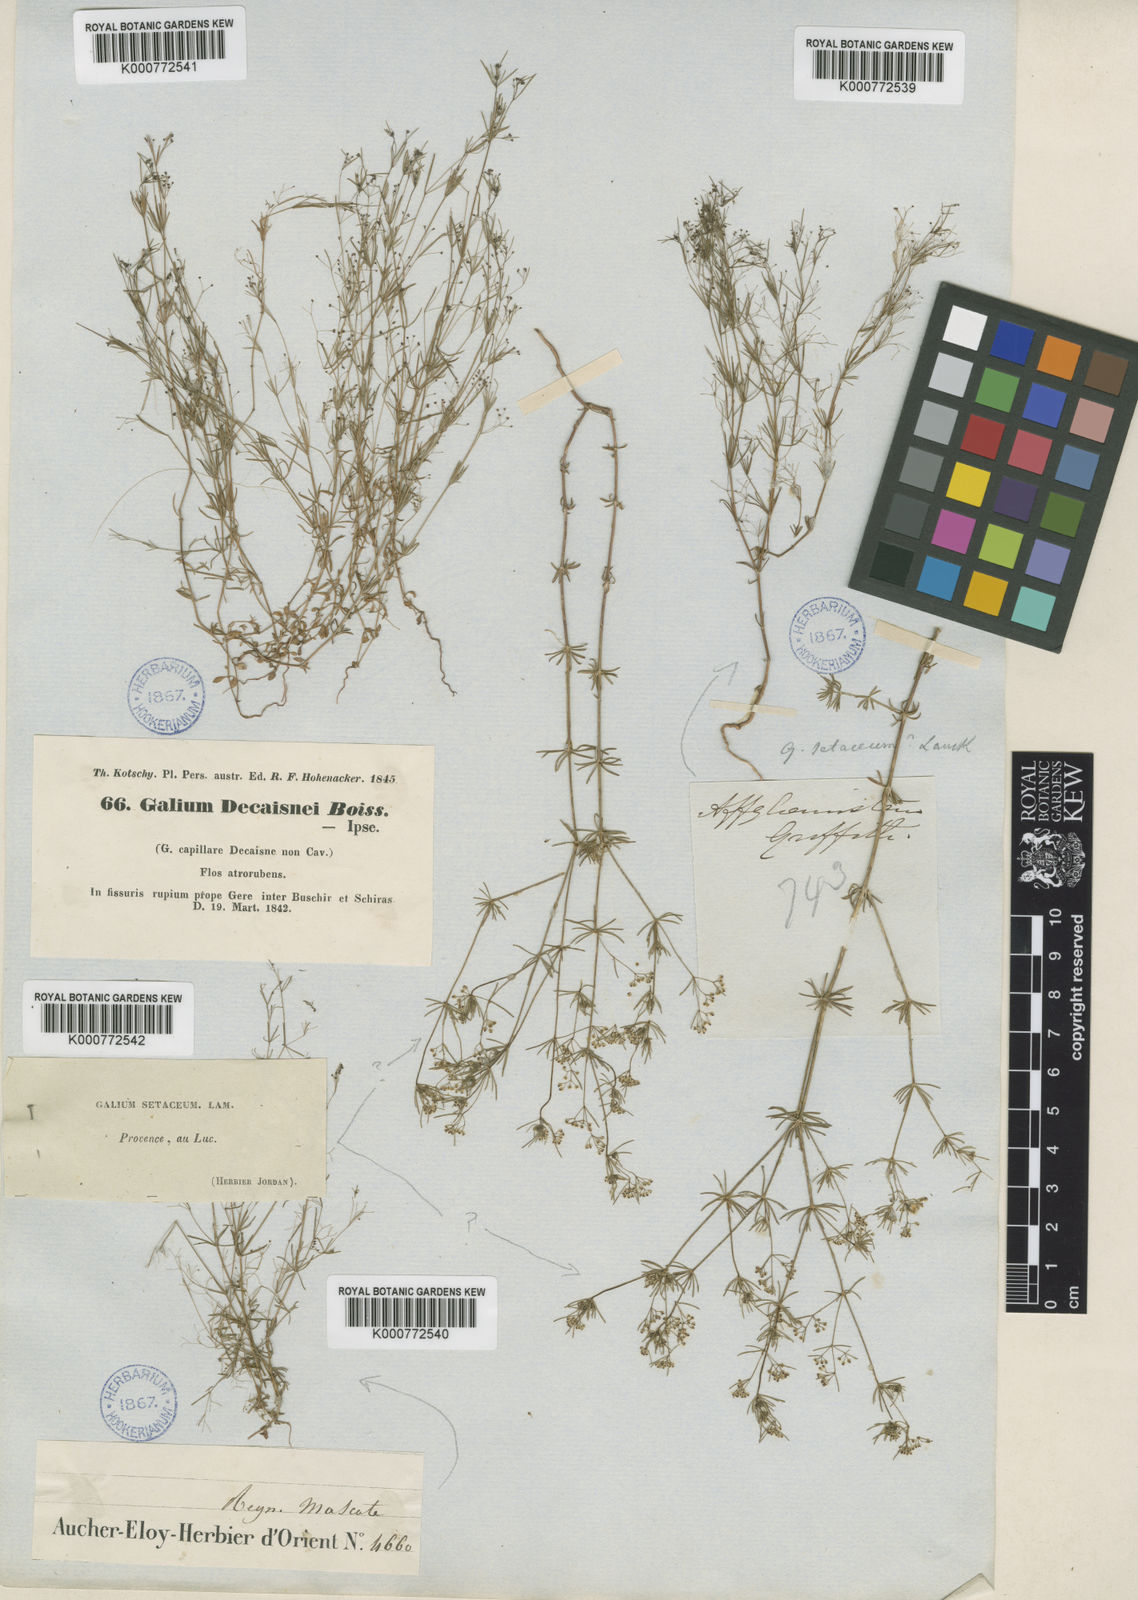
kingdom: Plantae
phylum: Tracheophyta
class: Magnoliopsida
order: Gentianales
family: Rubiaceae
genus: Galium
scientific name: Galium setaceum
